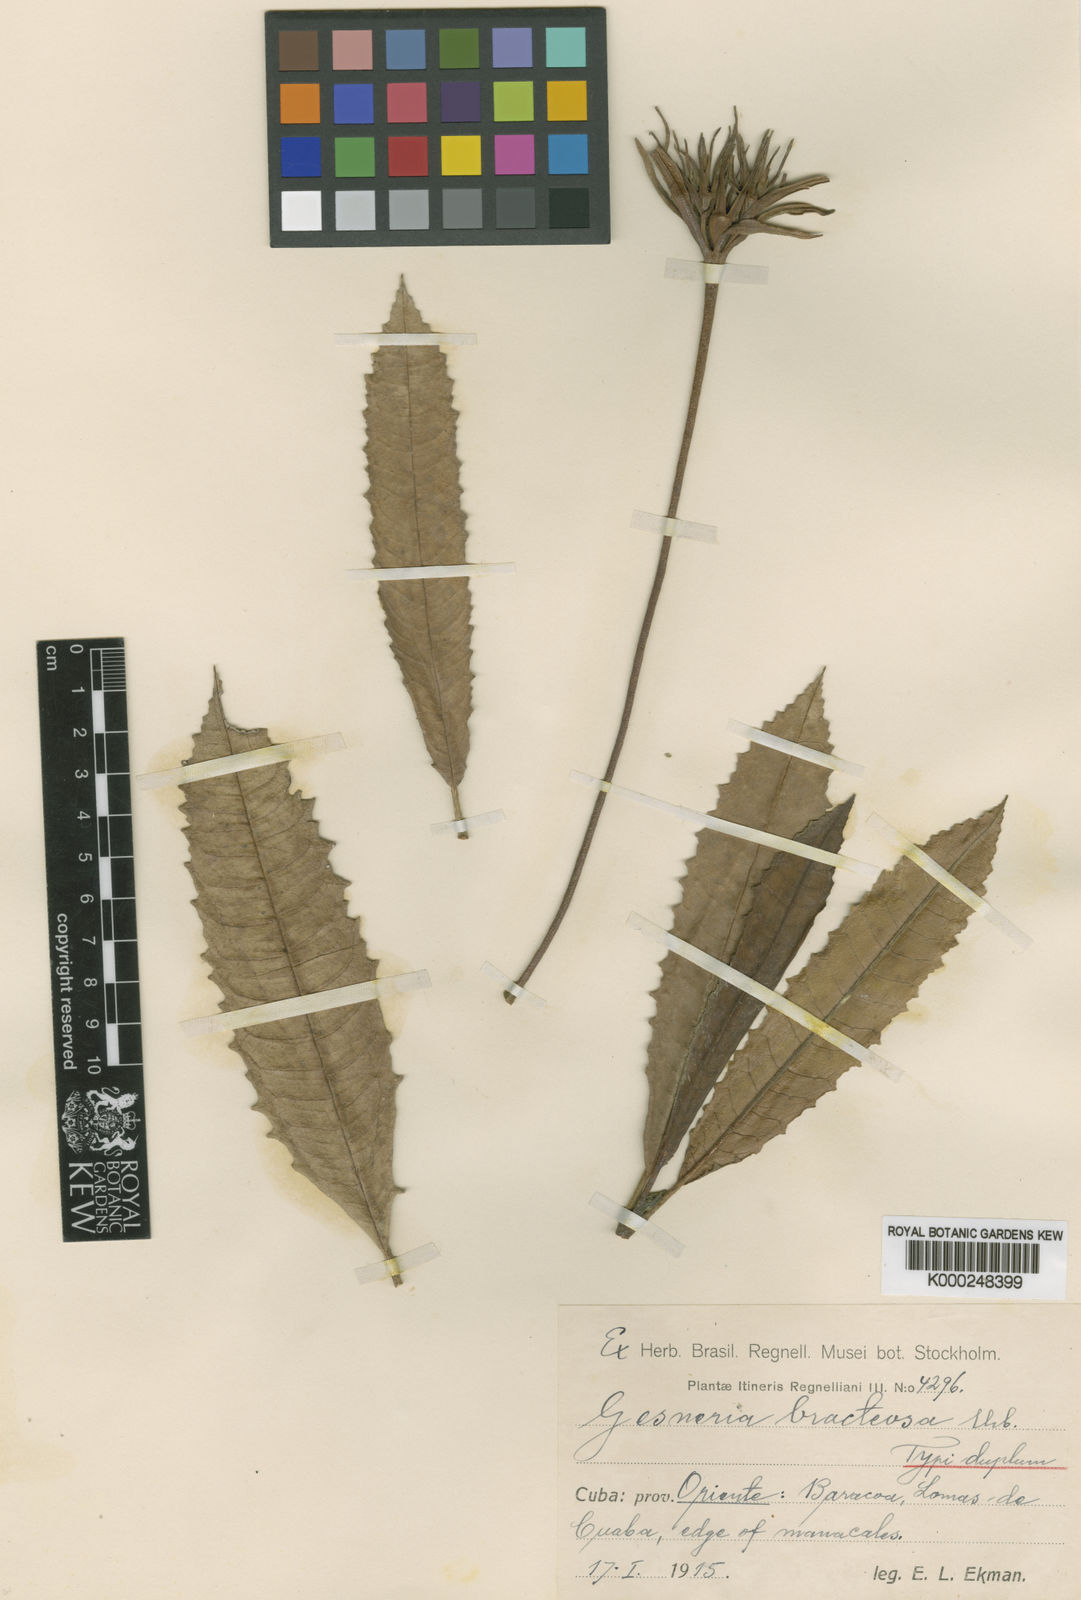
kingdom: Plantae
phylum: Tracheophyta
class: Magnoliopsida
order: Lamiales
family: Gesneriaceae
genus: Gesneria
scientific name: Gesneria duchartreoides
